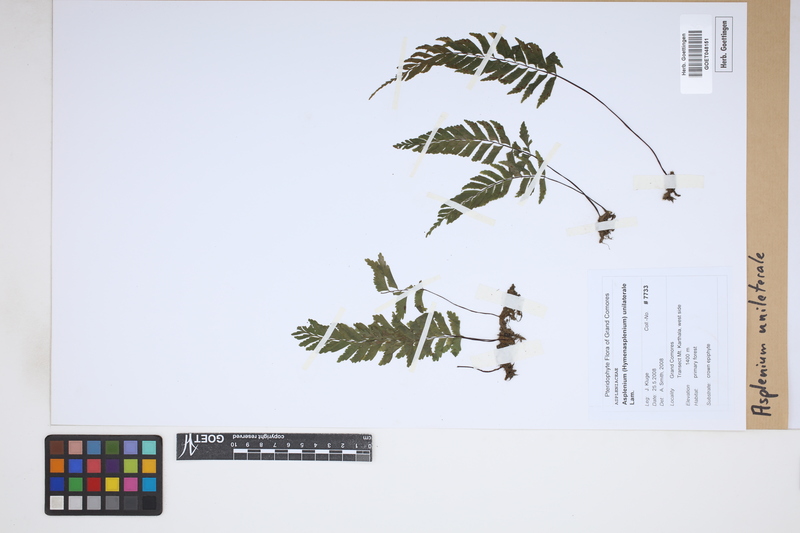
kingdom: Plantae
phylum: Tracheophyta
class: Polypodiopsida
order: Polypodiales
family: Aspleniaceae
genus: Hymenasplenium
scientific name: Hymenasplenium unilaterale
